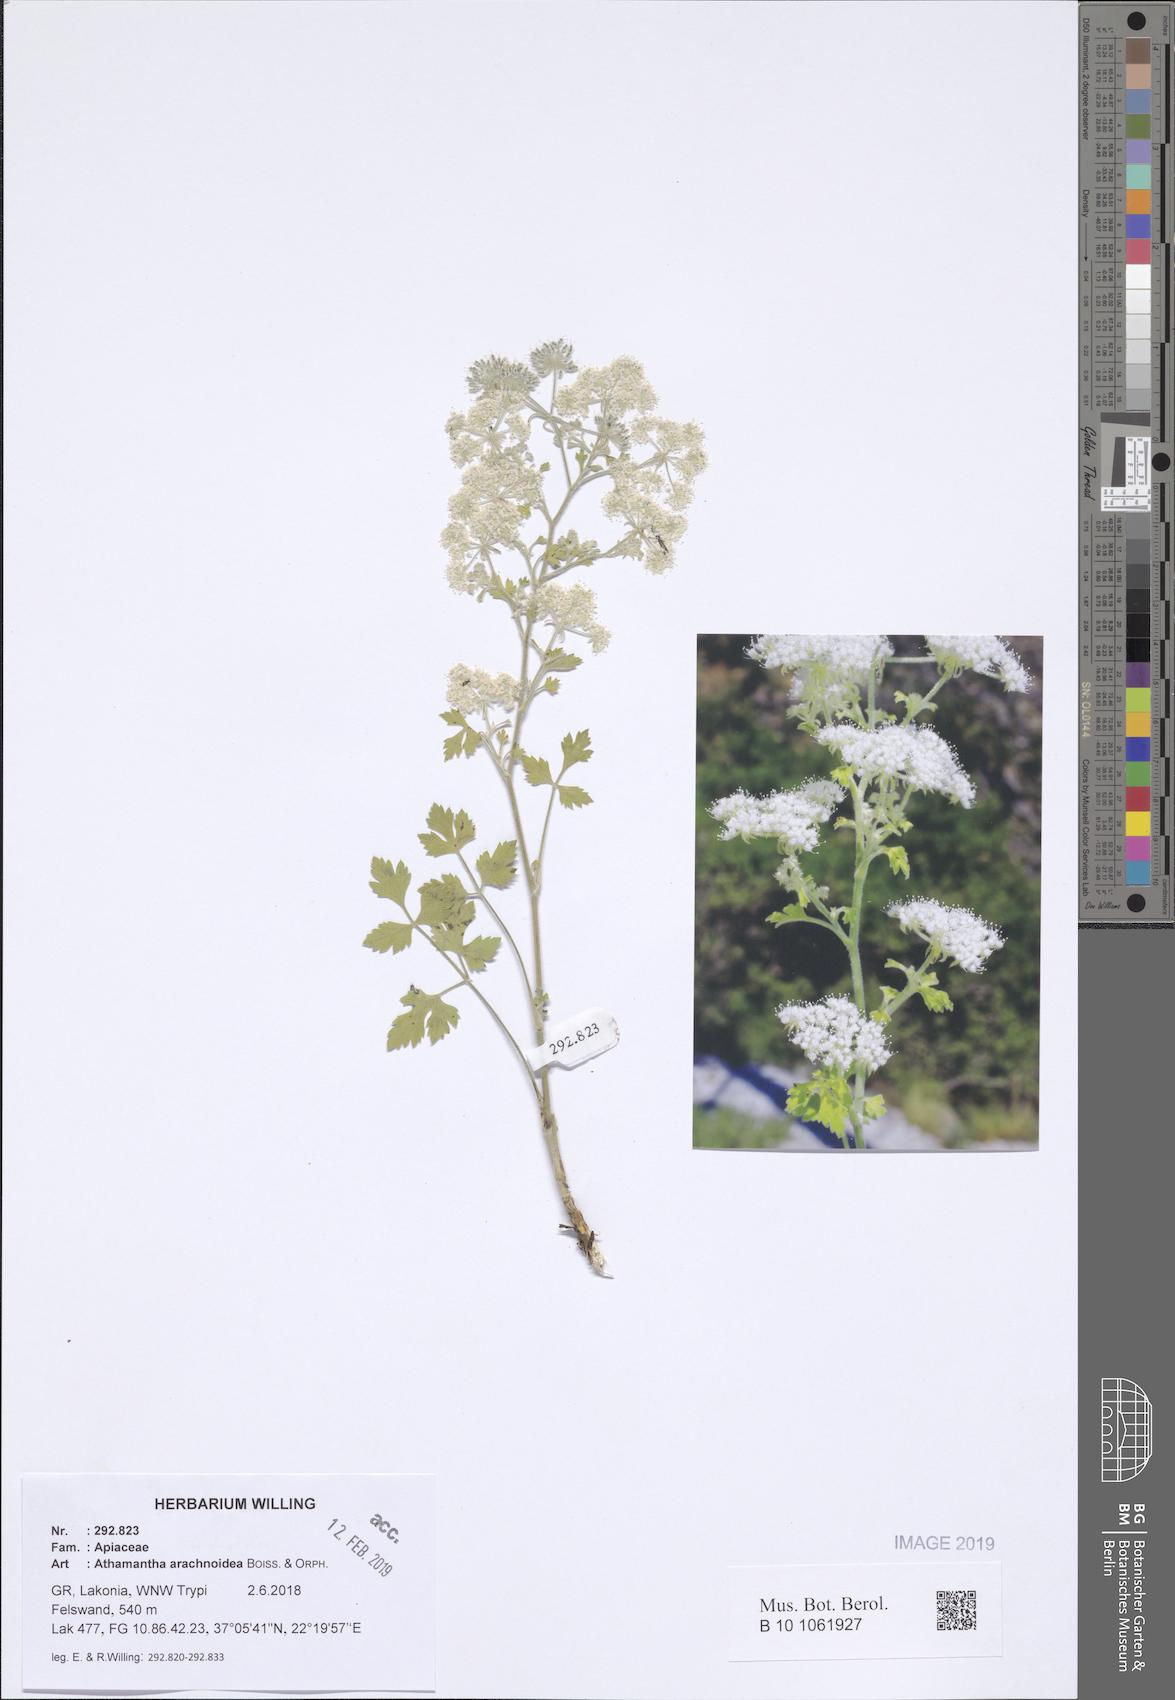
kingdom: Plantae
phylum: Tracheophyta
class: Magnoliopsida
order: Apiales
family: Apiaceae
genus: Bubon
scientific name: Bubon arachnoideum
